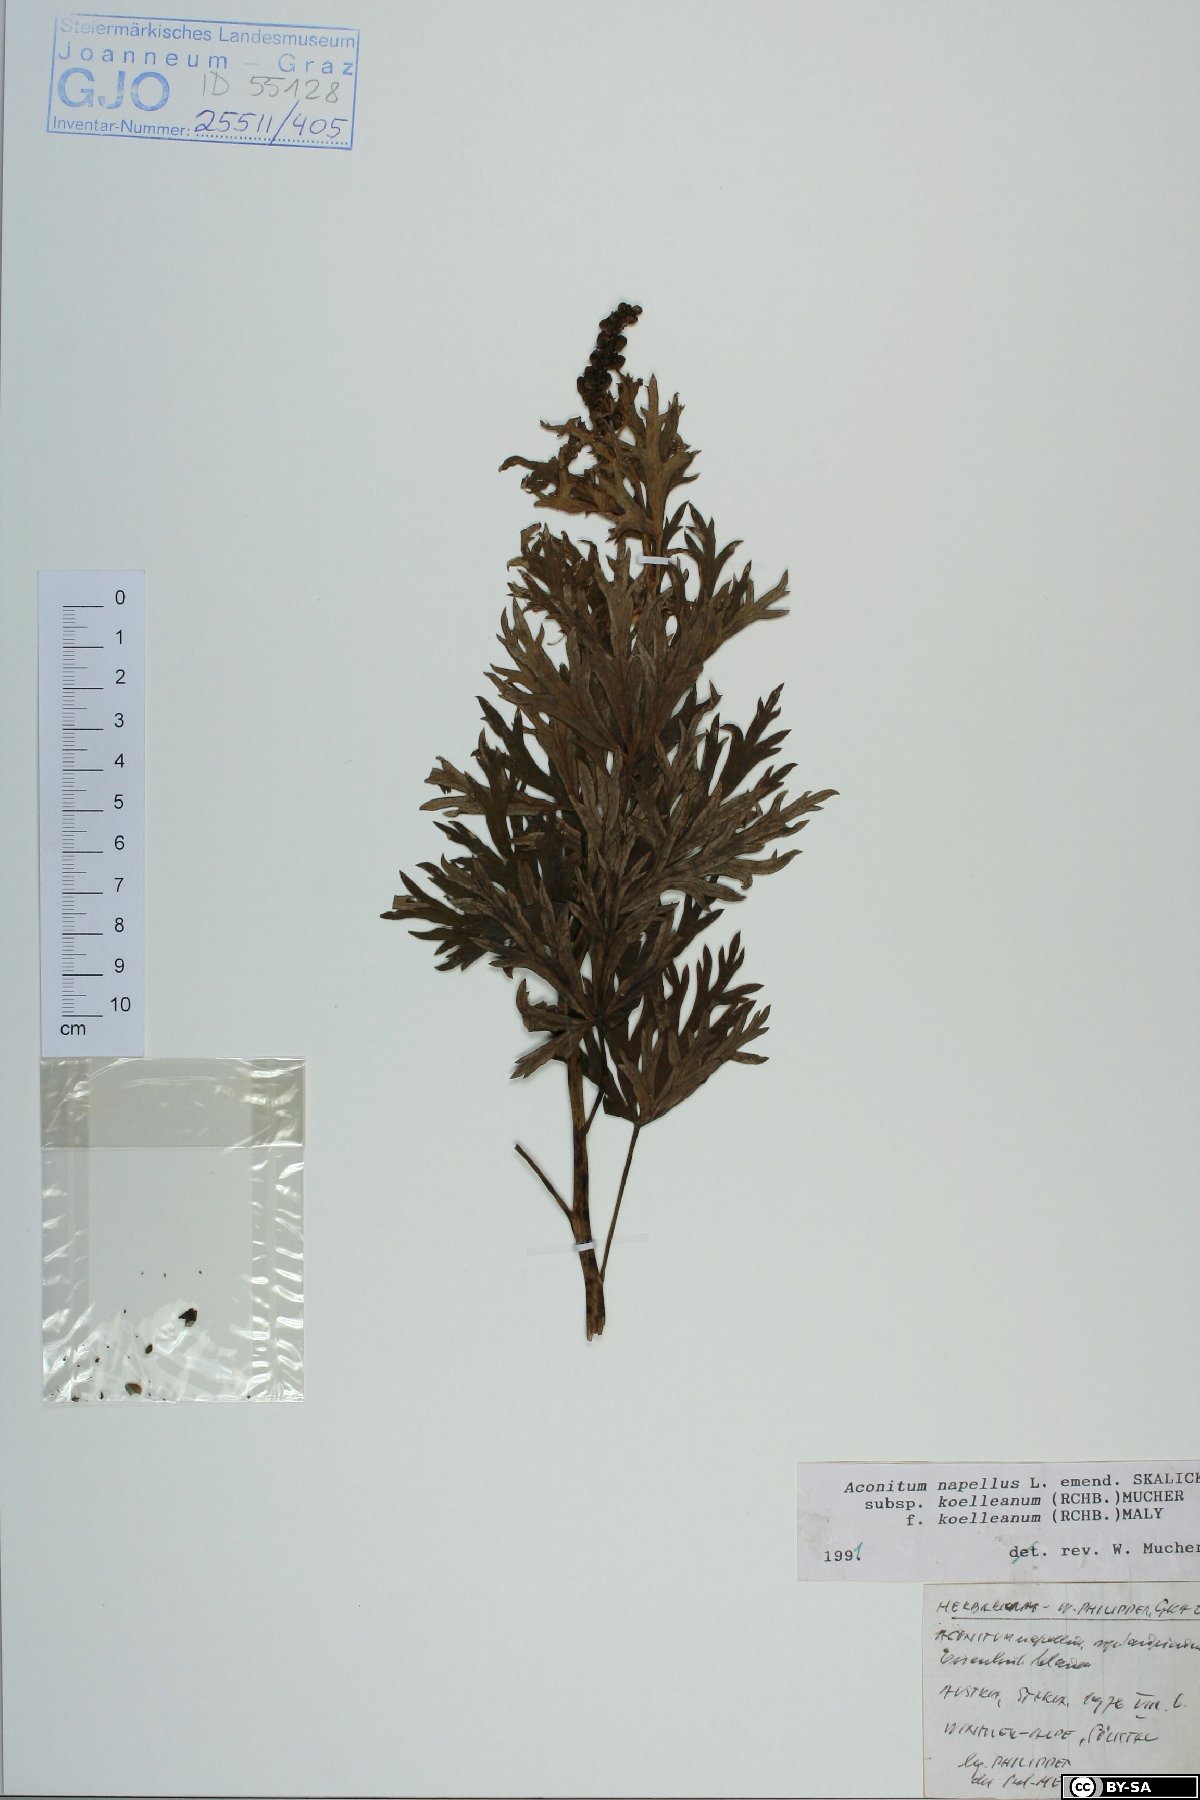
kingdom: Plantae
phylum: Tracheophyta
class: Magnoliopsida
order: Ranunculales
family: Ranunculaceae
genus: Aconitum
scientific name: Aconitum tauricum
